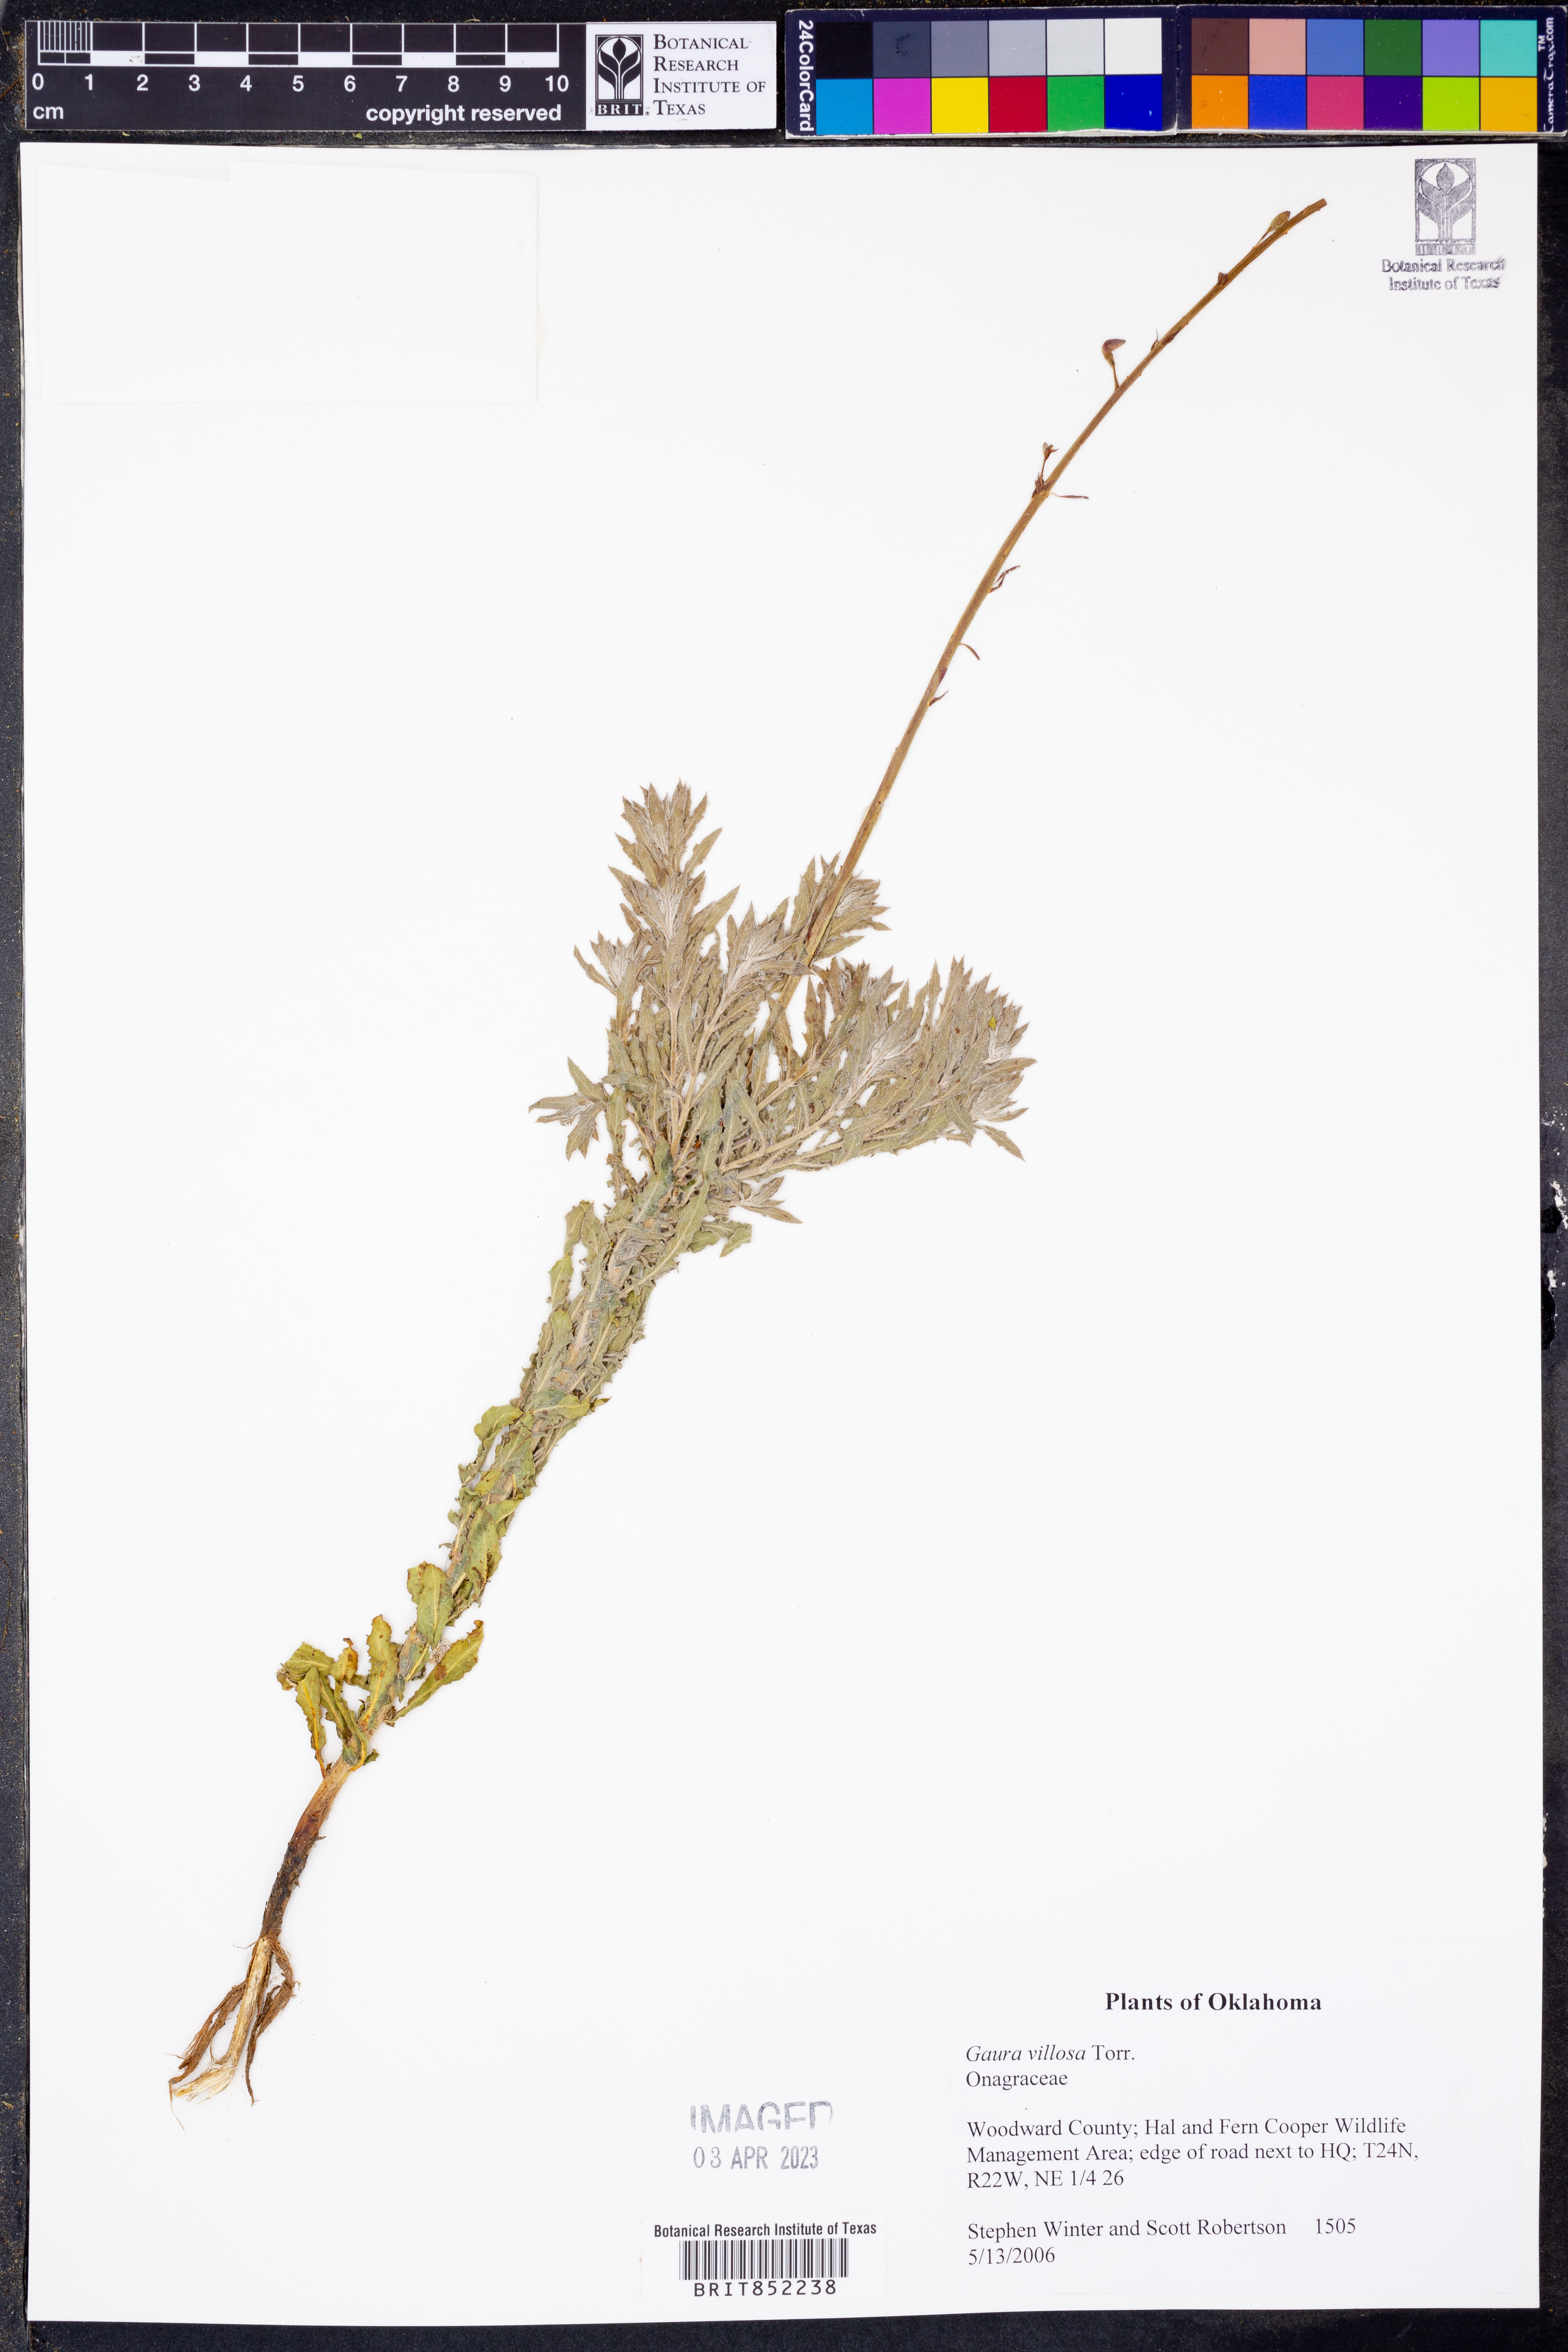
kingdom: Plantae
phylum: Tracheophyta
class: Magnoliopsida
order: Myrtales
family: Onagraceae
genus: Oenothera
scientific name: Oenothera cinerea
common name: Woolly beeblossom
